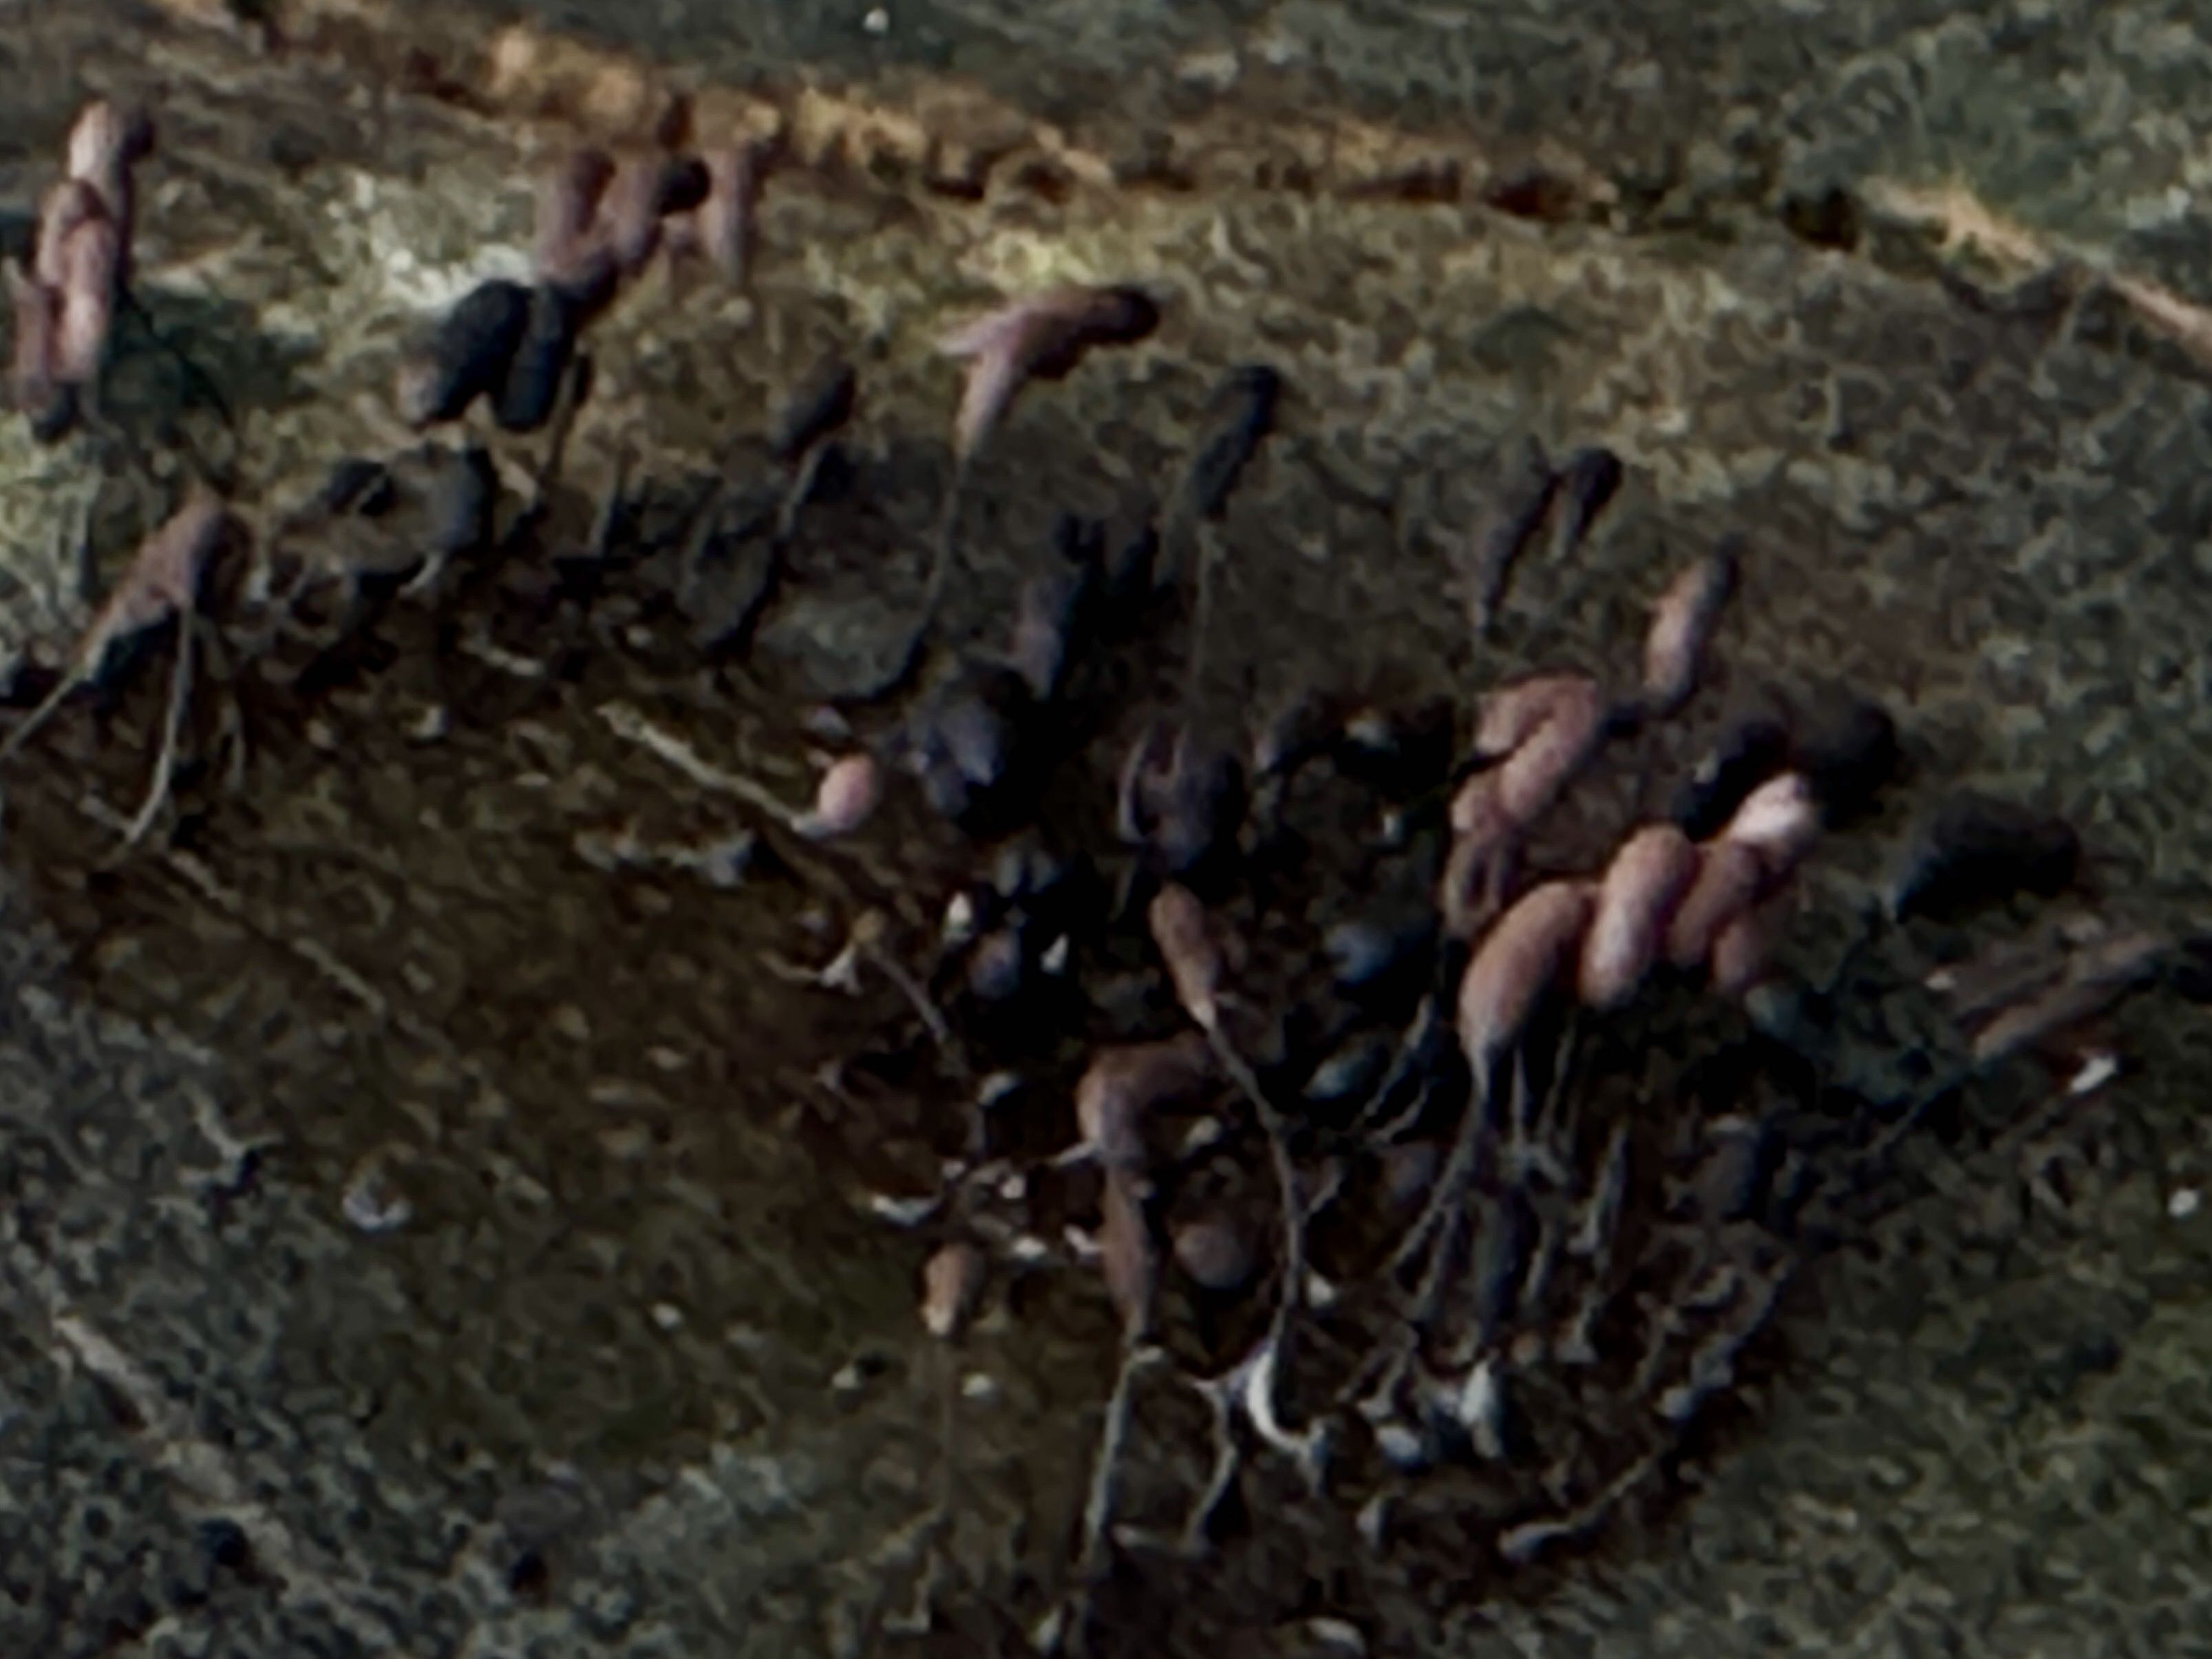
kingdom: Protozoa
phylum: Mycetozoa
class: Myxomycetes
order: Stemonitidales
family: Stemonitidaceae
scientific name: Stemonitidaceae
